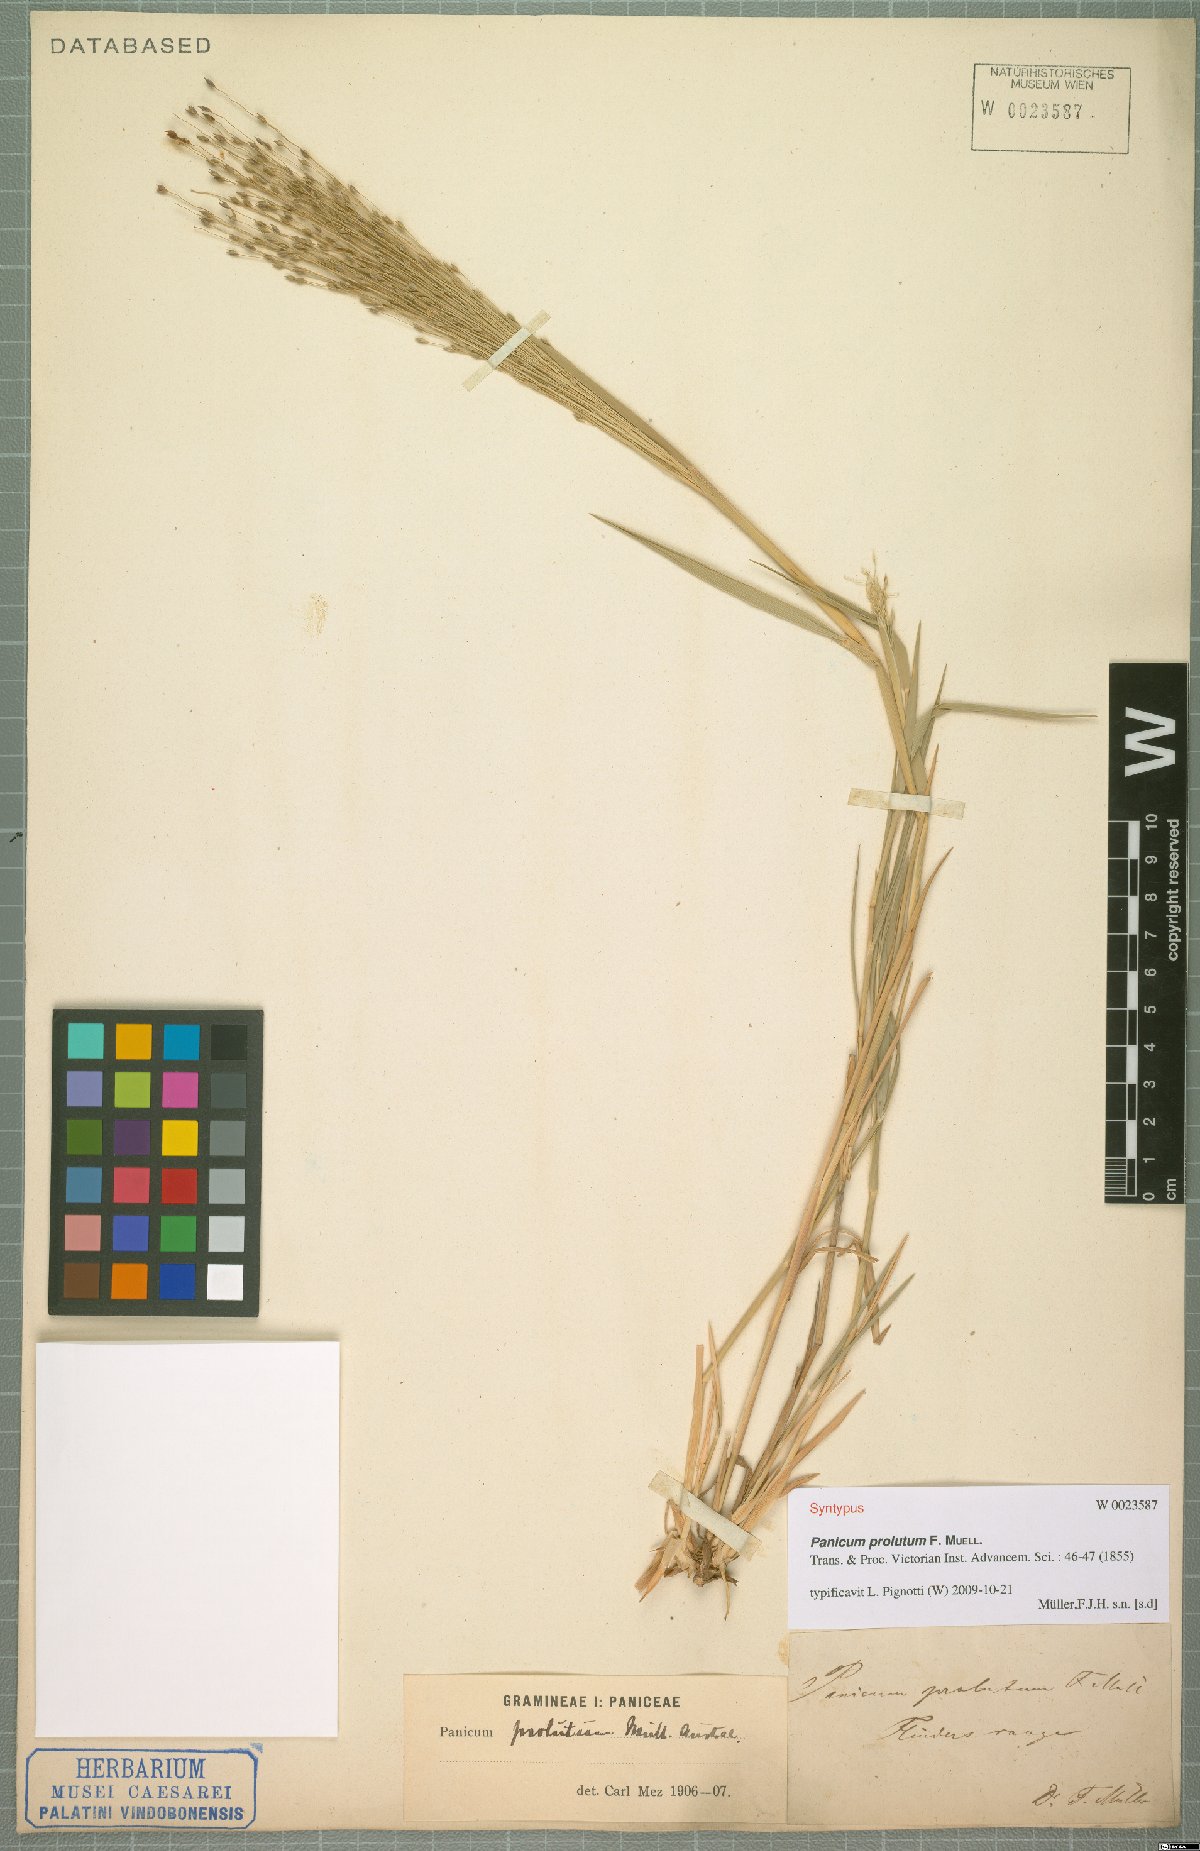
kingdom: Plantae
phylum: Tracheophyta
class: Liliopsida
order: Poales
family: Poaceae
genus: Walwhalleya
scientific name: Walwhalleya proluta
